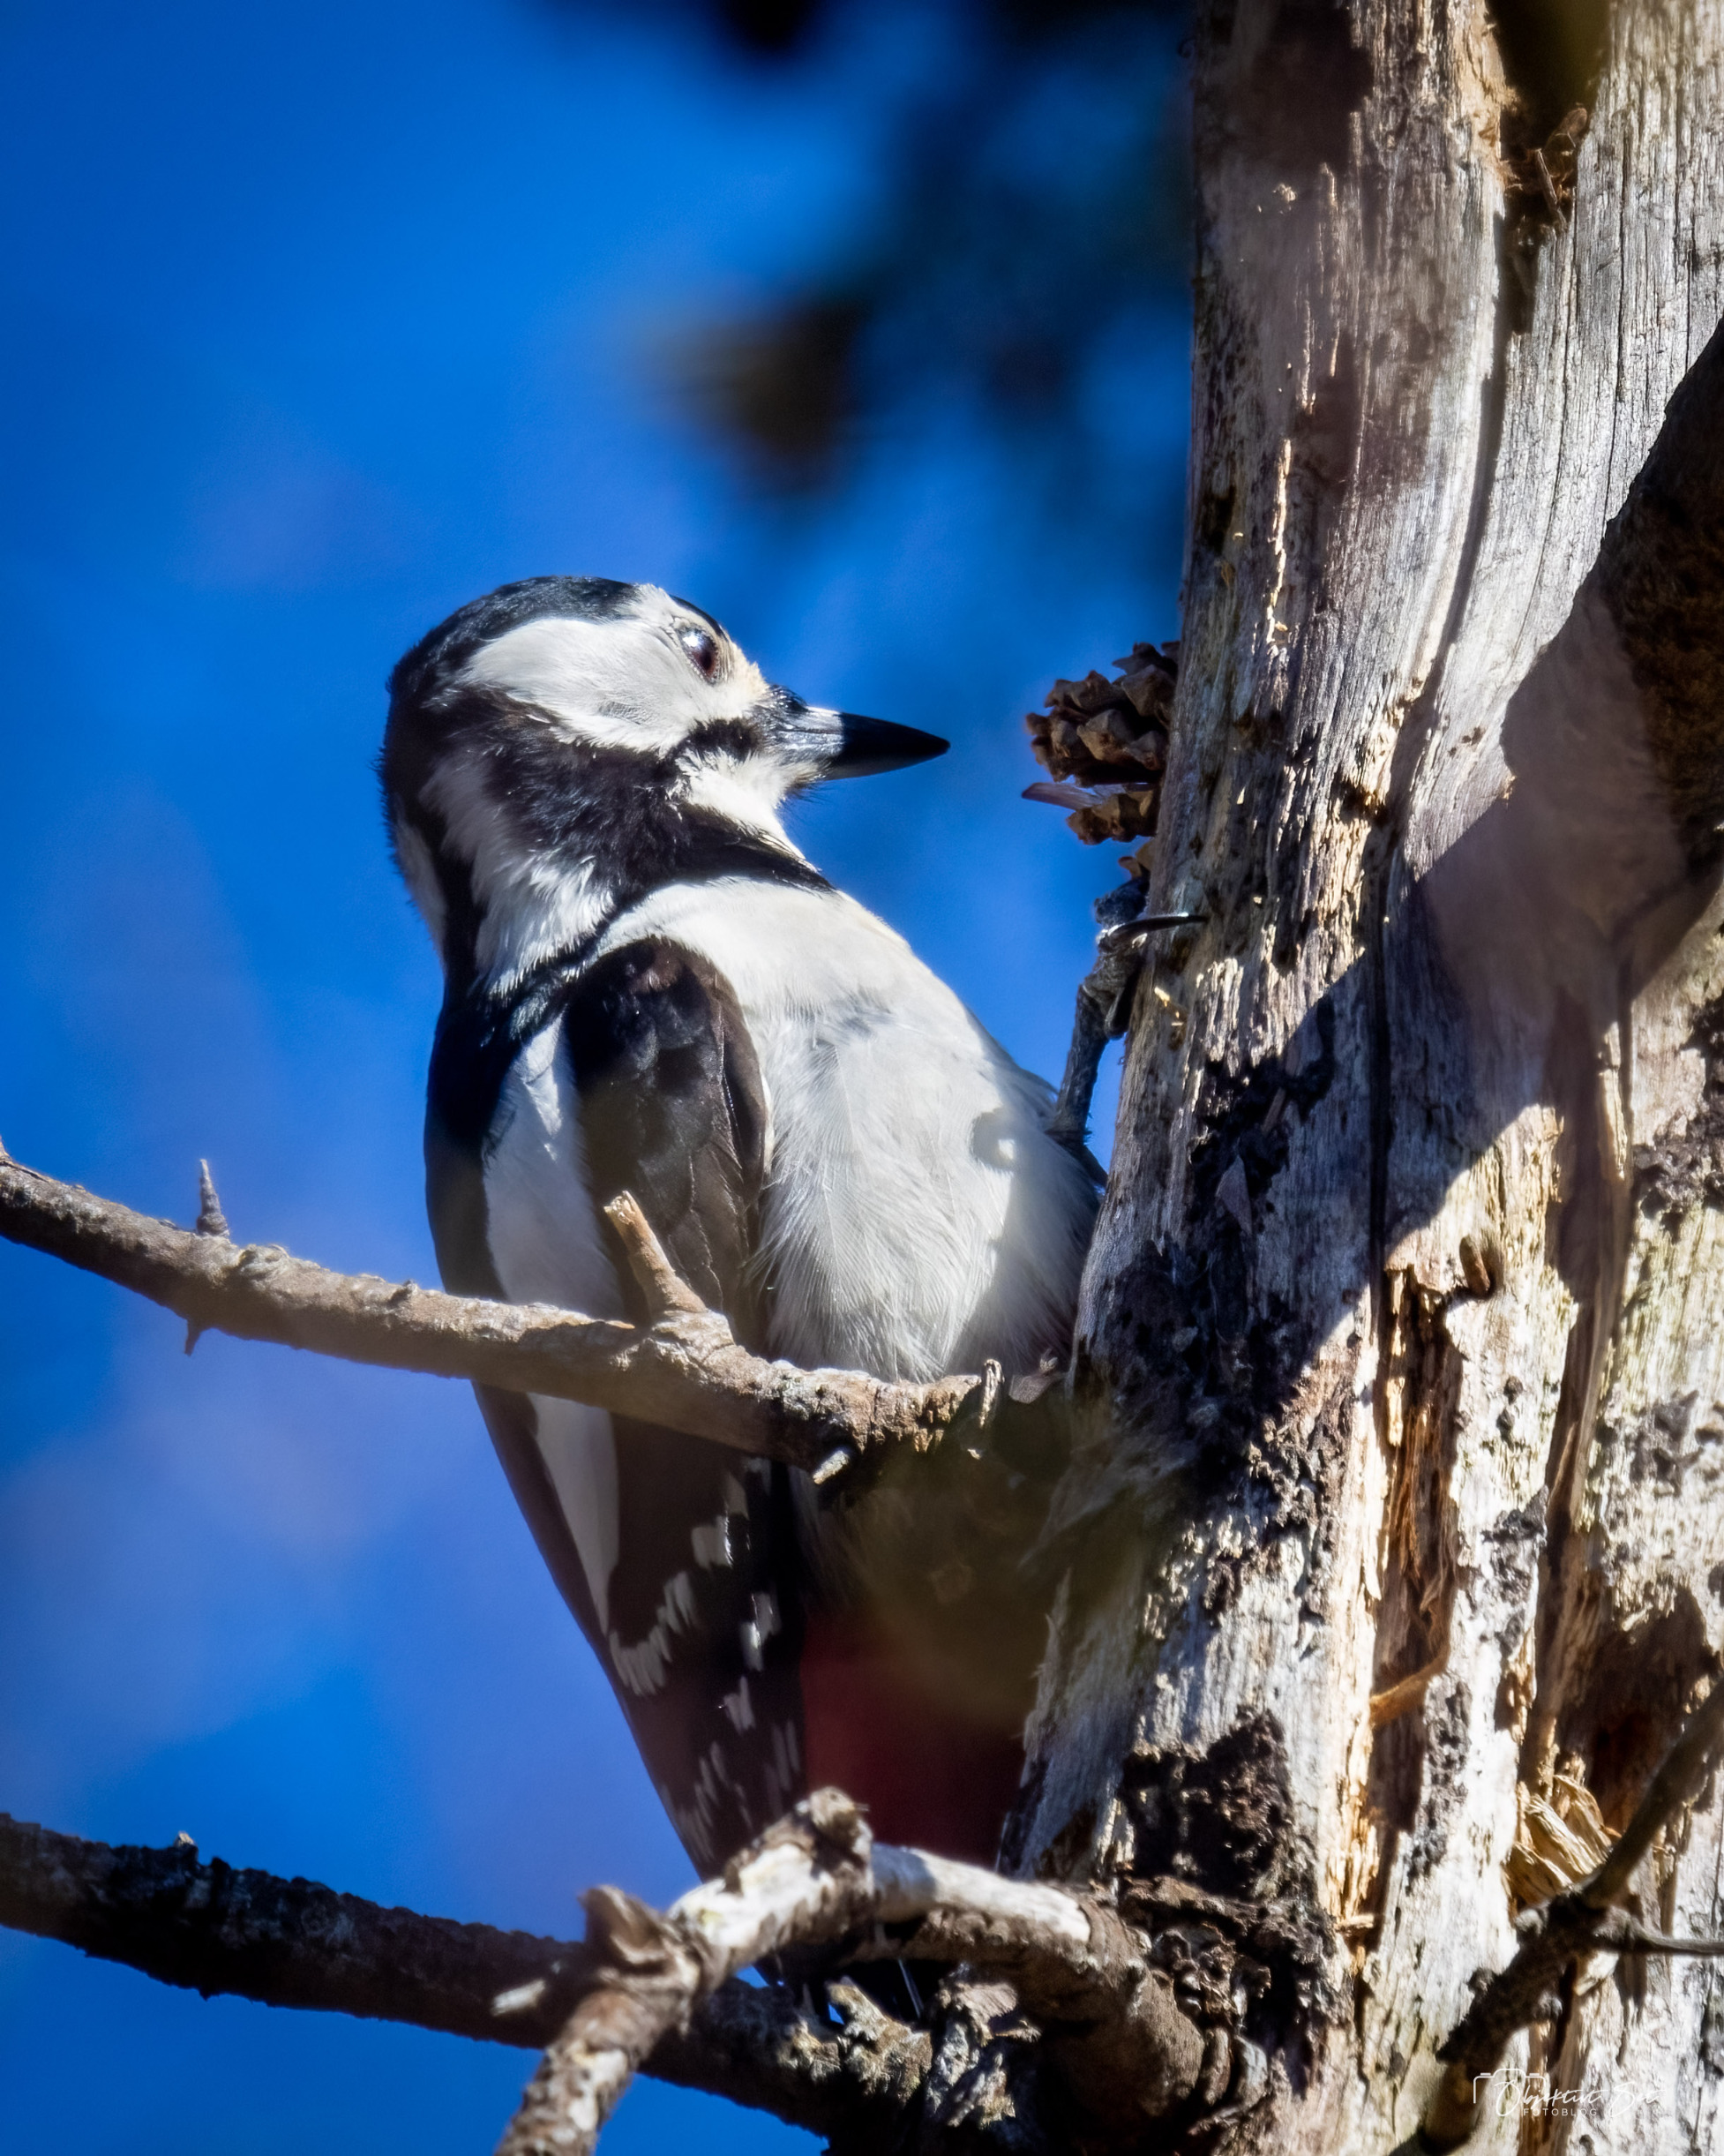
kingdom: Animalia
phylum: Chordata
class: Aves
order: Piciformes
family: Picidae
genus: Dendrocopos
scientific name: Dendrocopos major
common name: Stor flagspætte
